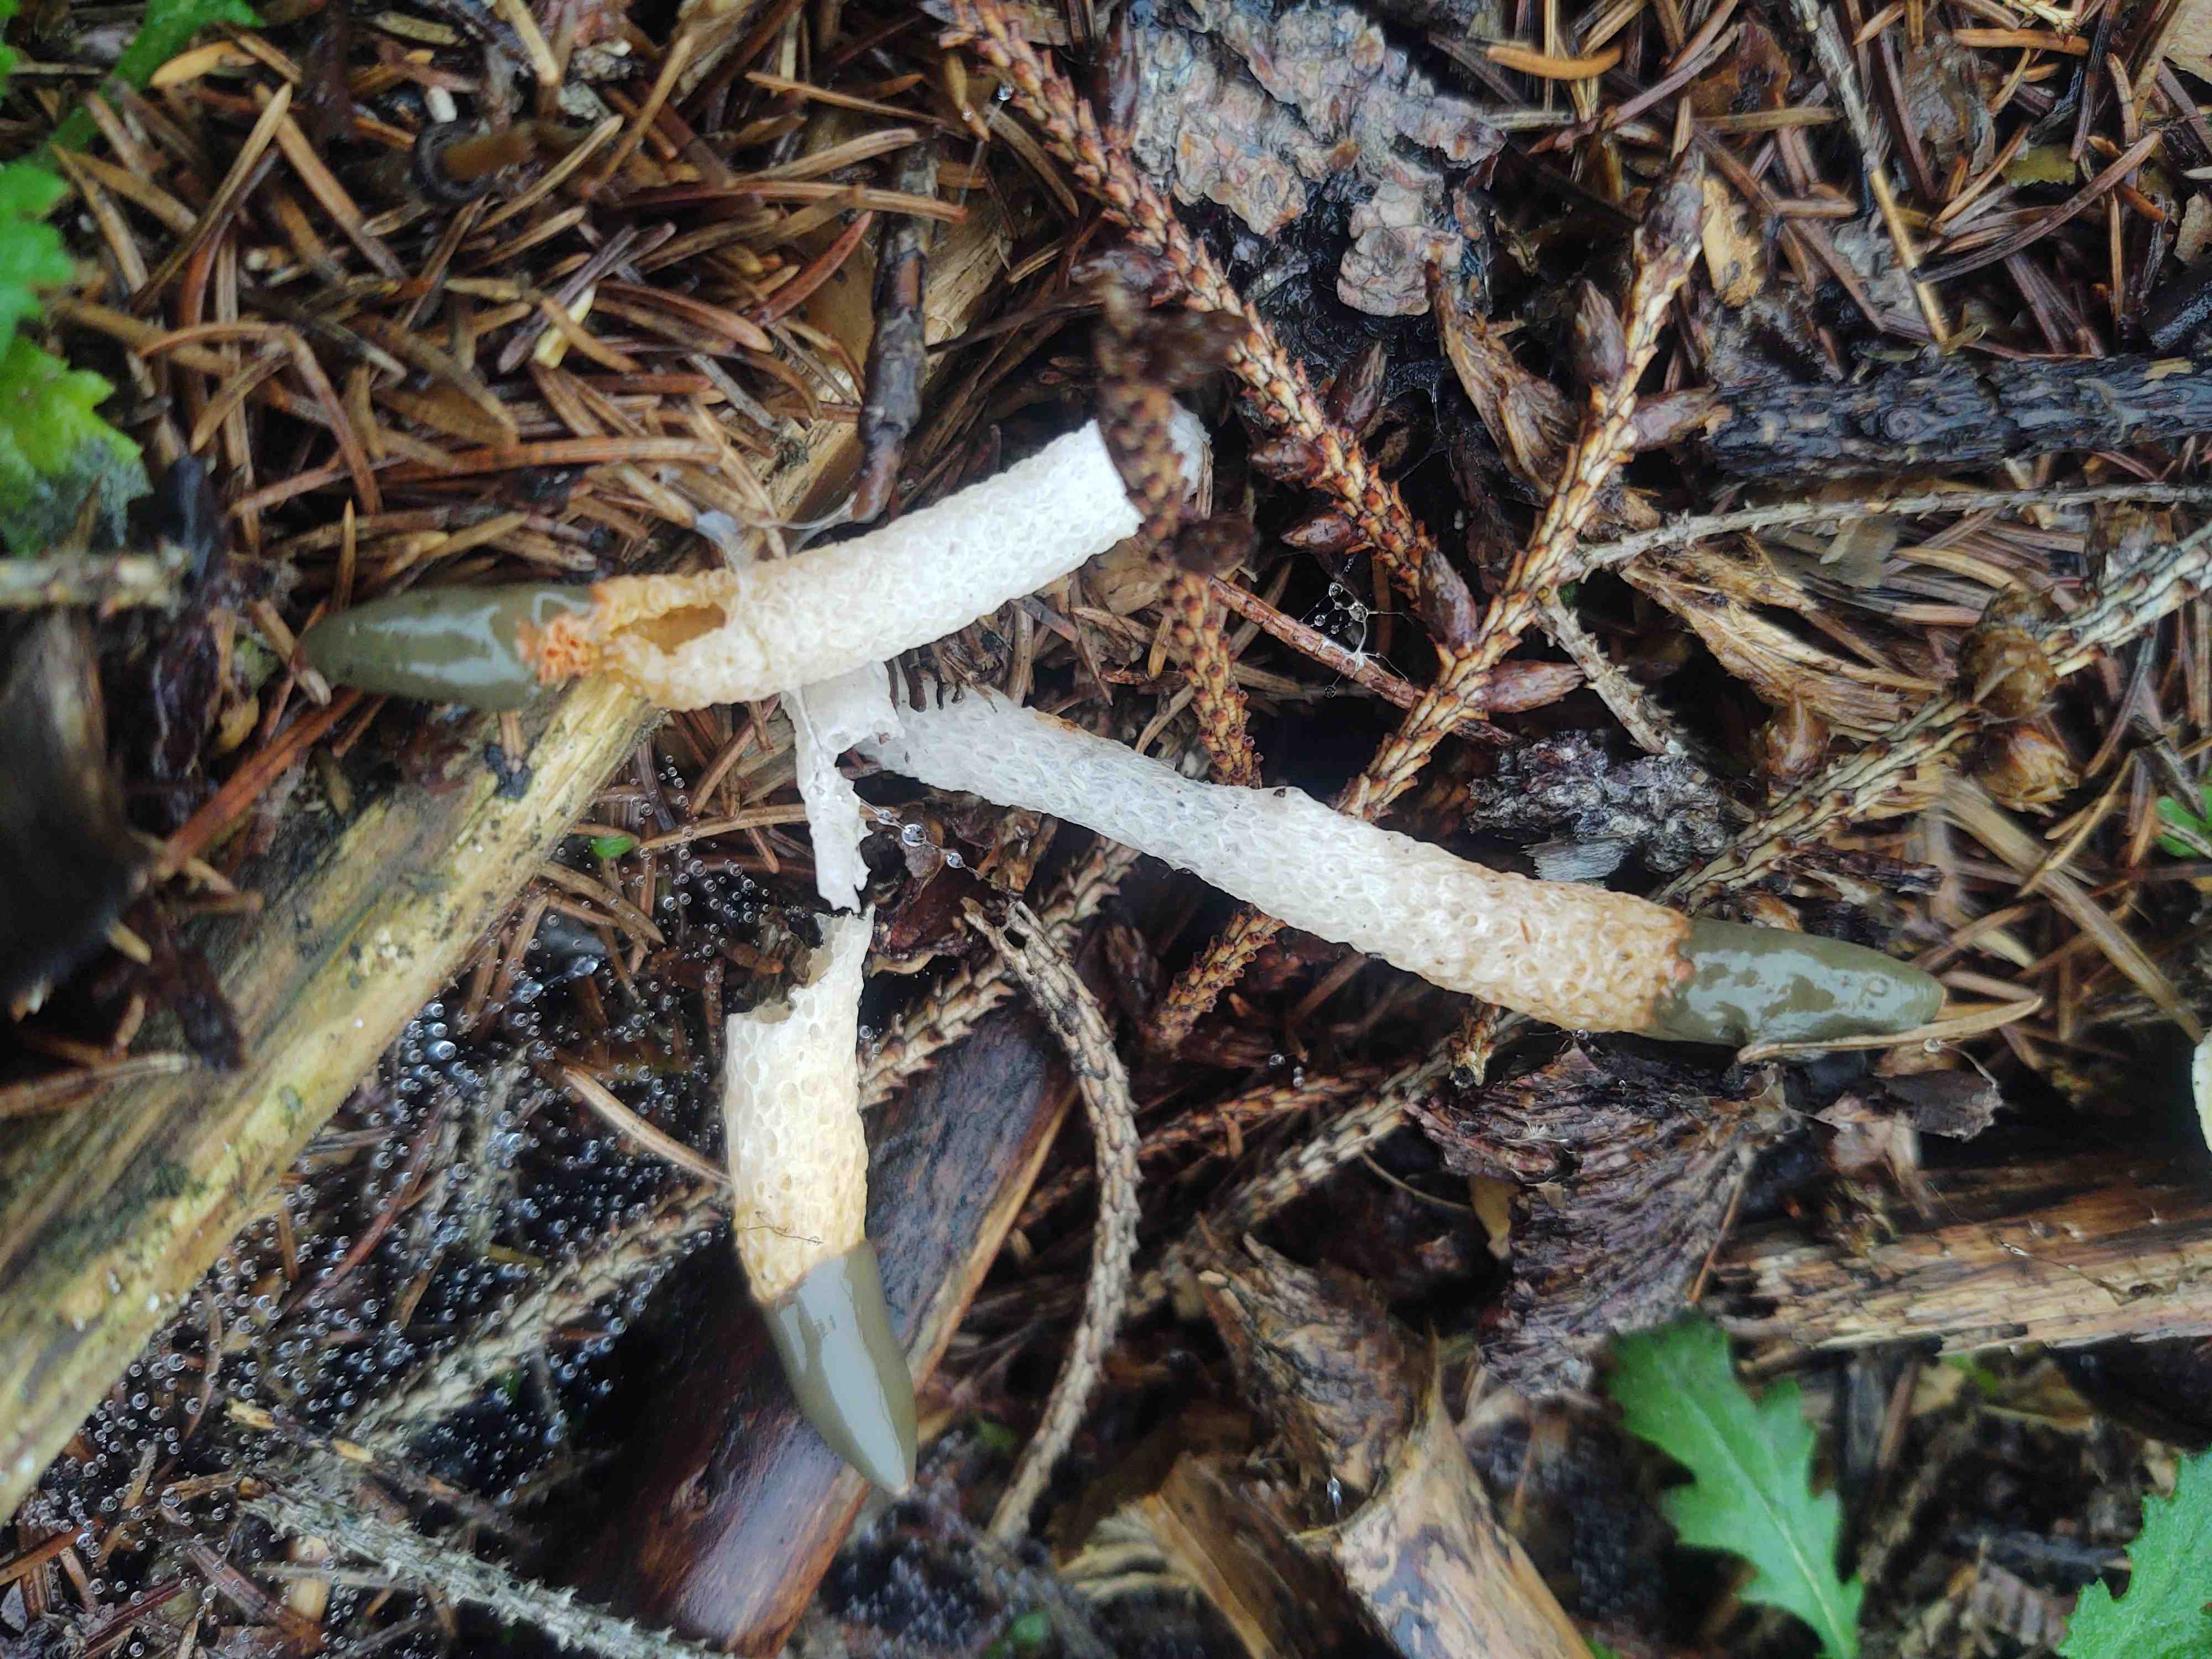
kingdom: Fungi
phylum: Basidiomycota
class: Agaricomycetes
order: Phallales
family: Phallaceae
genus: Mutinus
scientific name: Mutinus caninus
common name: hunde-stinksvamp
